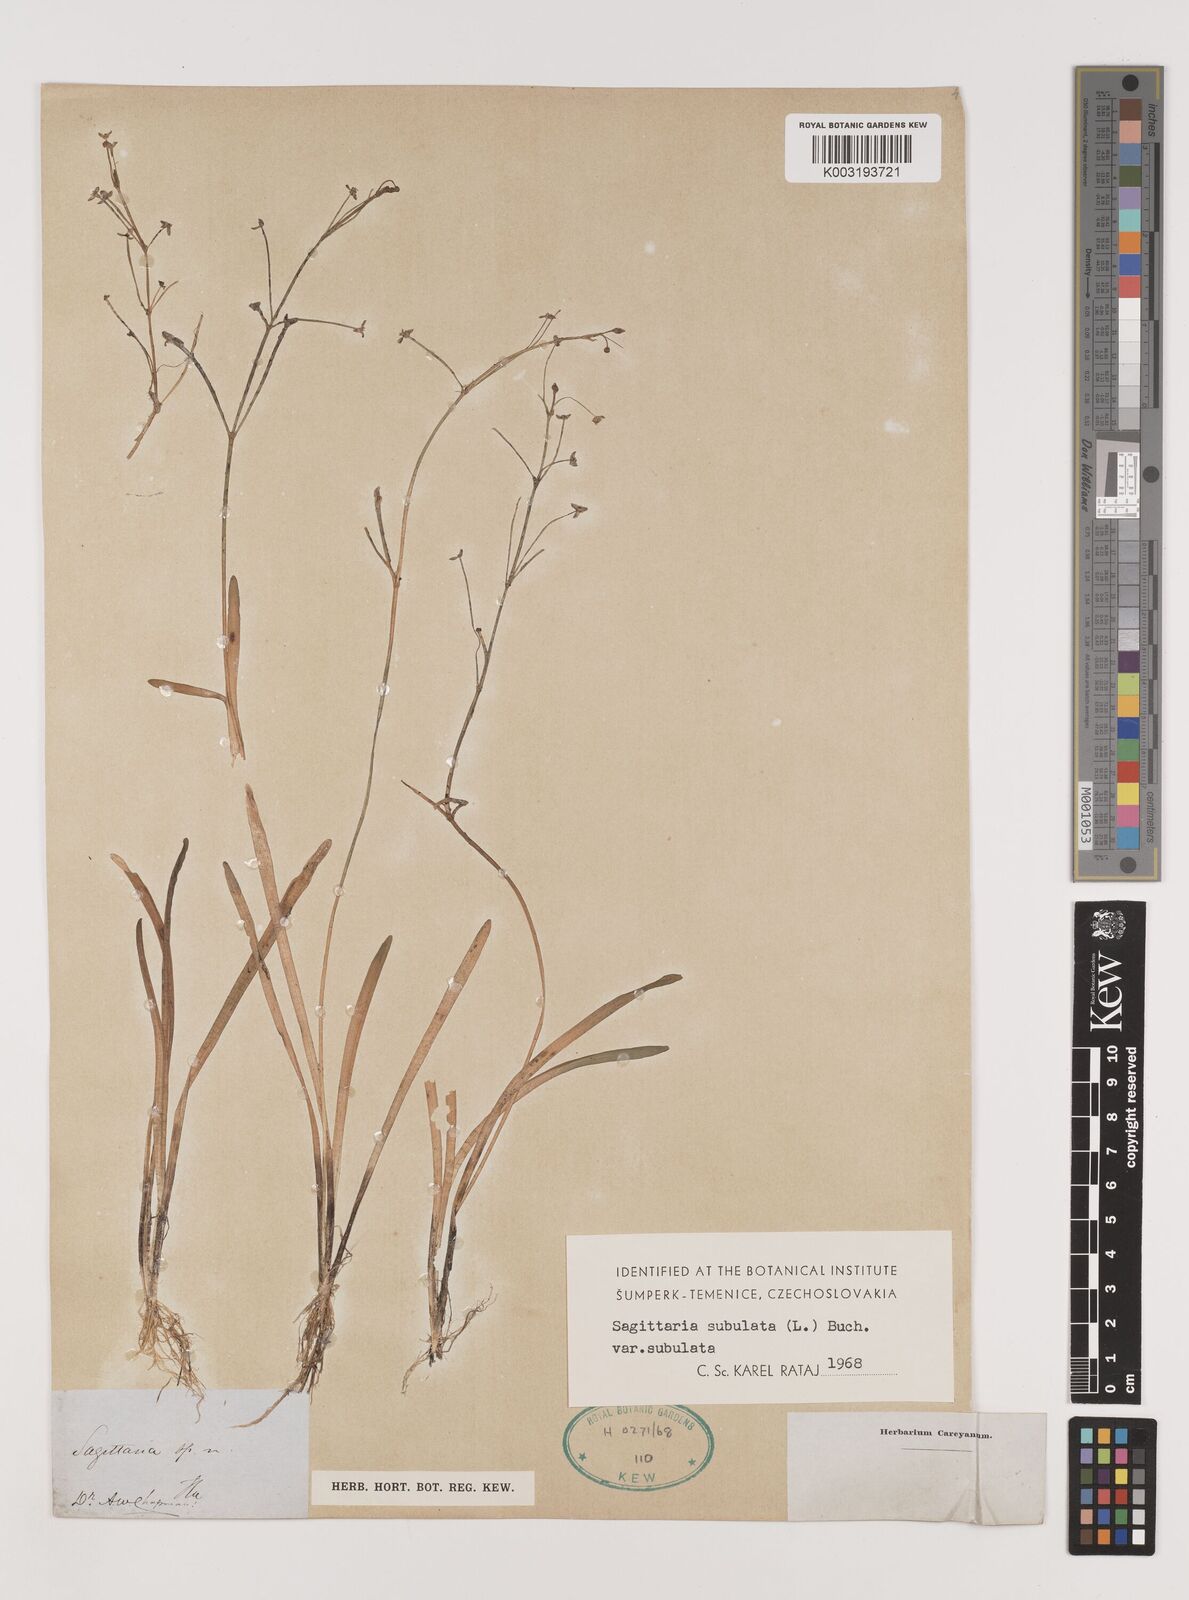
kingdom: Plantae
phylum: Tracheophyta
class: Liliopsida
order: Alismatales
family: Alismataceae
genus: Sagittaria
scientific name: Sagittaria subulata
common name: Narrow-leaved arrowhead
